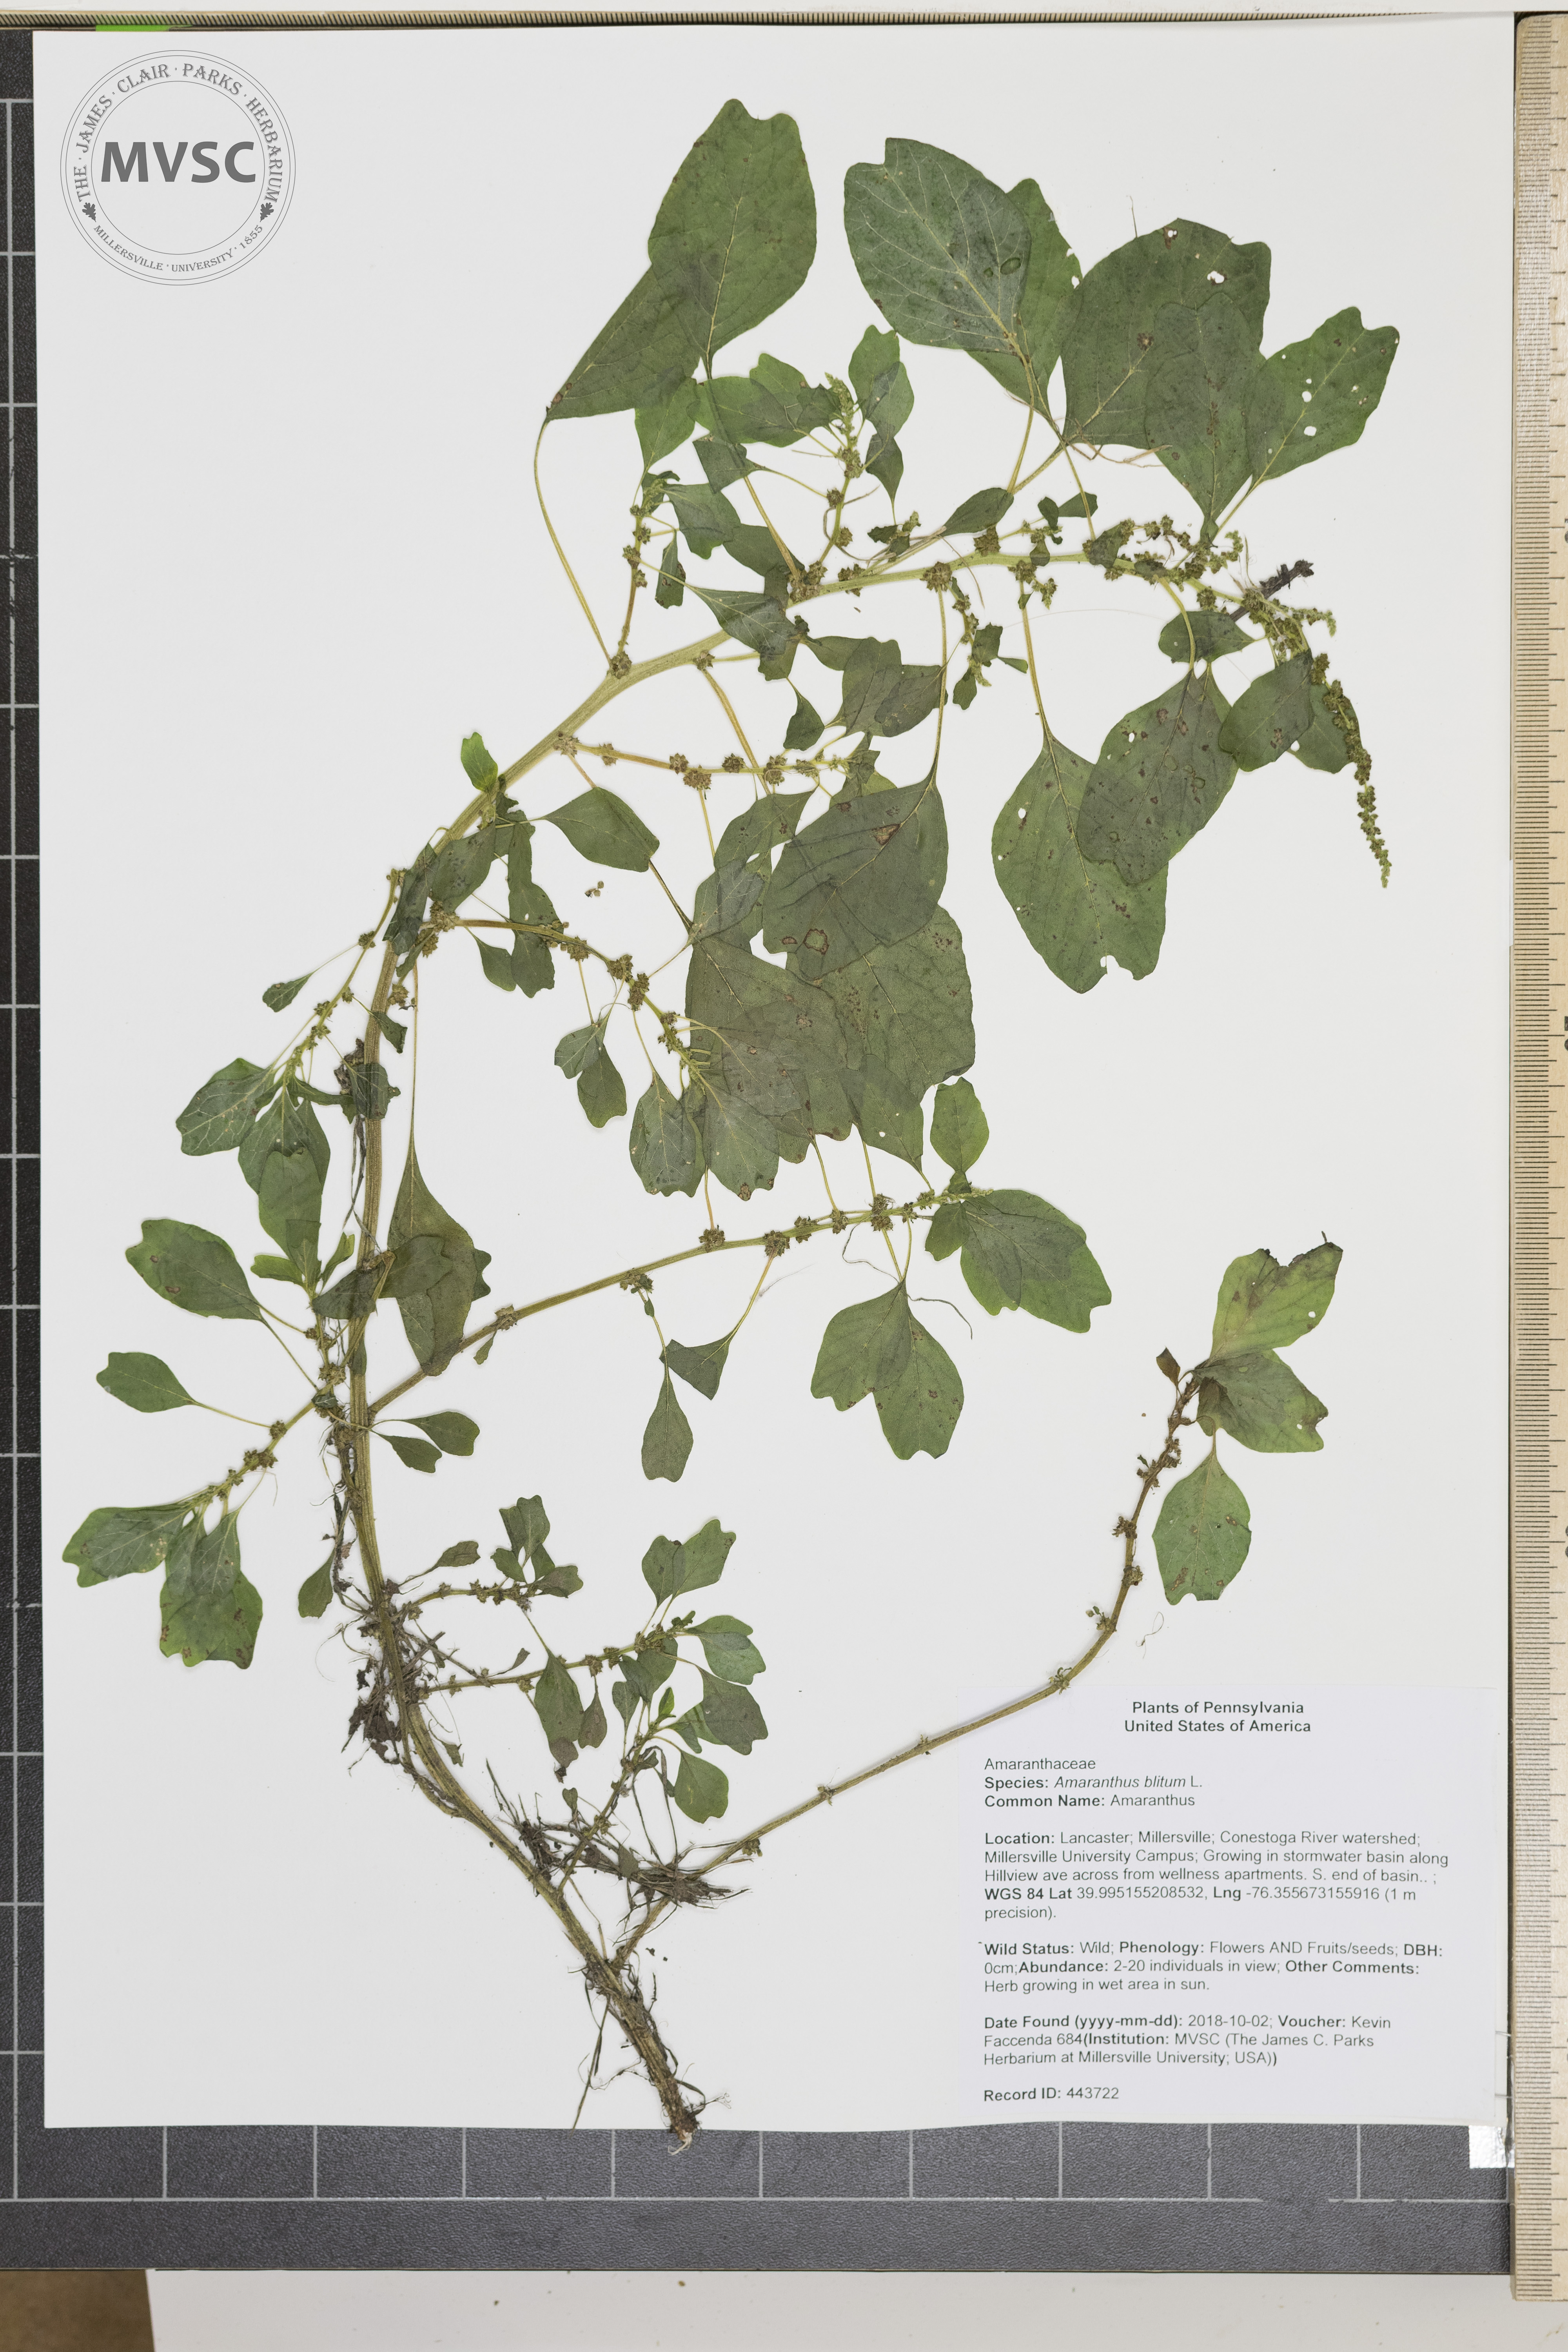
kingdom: Plantae
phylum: Tracheophyta
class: Magnoliopsida
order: Caryophyllales
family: Amaranthaceae
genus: Amaranthus
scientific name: Amaranthus blitum
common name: Amaranthus
